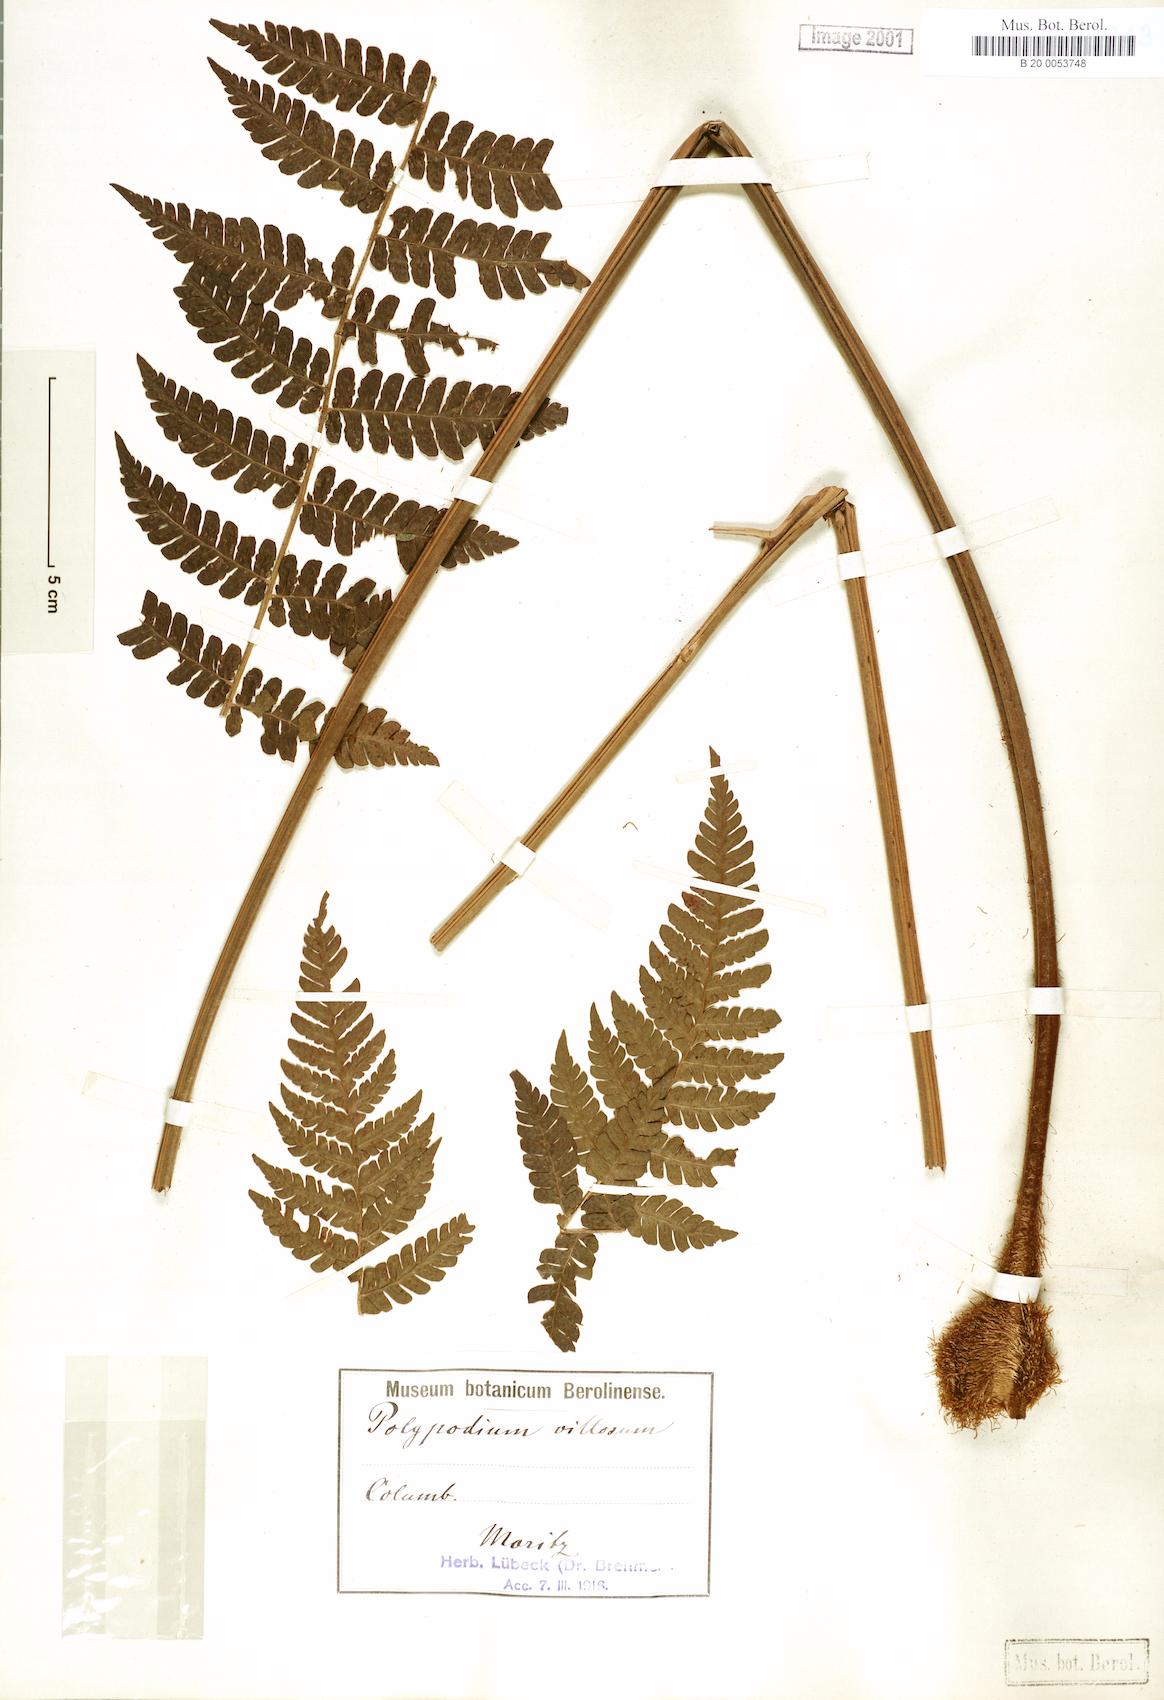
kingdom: Plantae
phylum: Tracheophyta
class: Polypodiopsida
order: Polypodiales
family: Dryopteridaceae
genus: Megalastrum
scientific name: Megalastrum villosum
